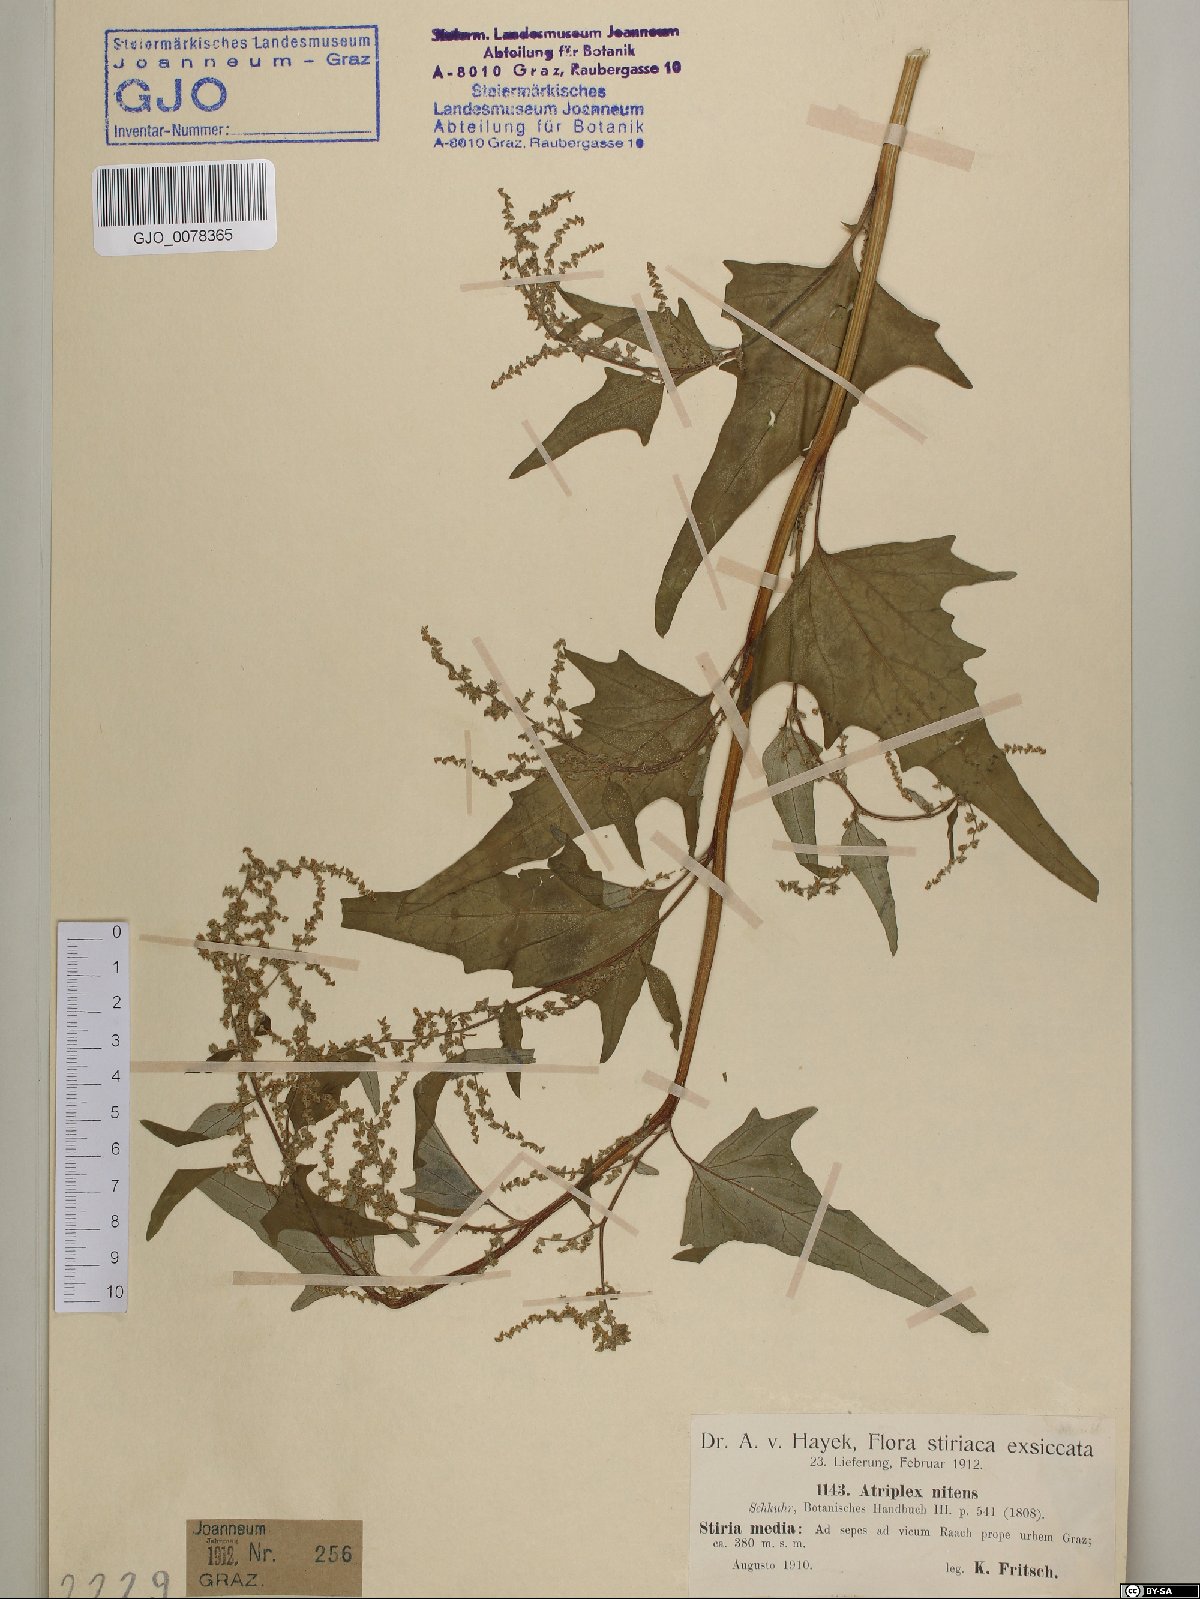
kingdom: Plantae
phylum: Tracheophyta
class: Magnoliopsida
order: Caryophyllales
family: Amaranthaceae
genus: Atriplex
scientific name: Atriplex sagittata
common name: Purple orache
